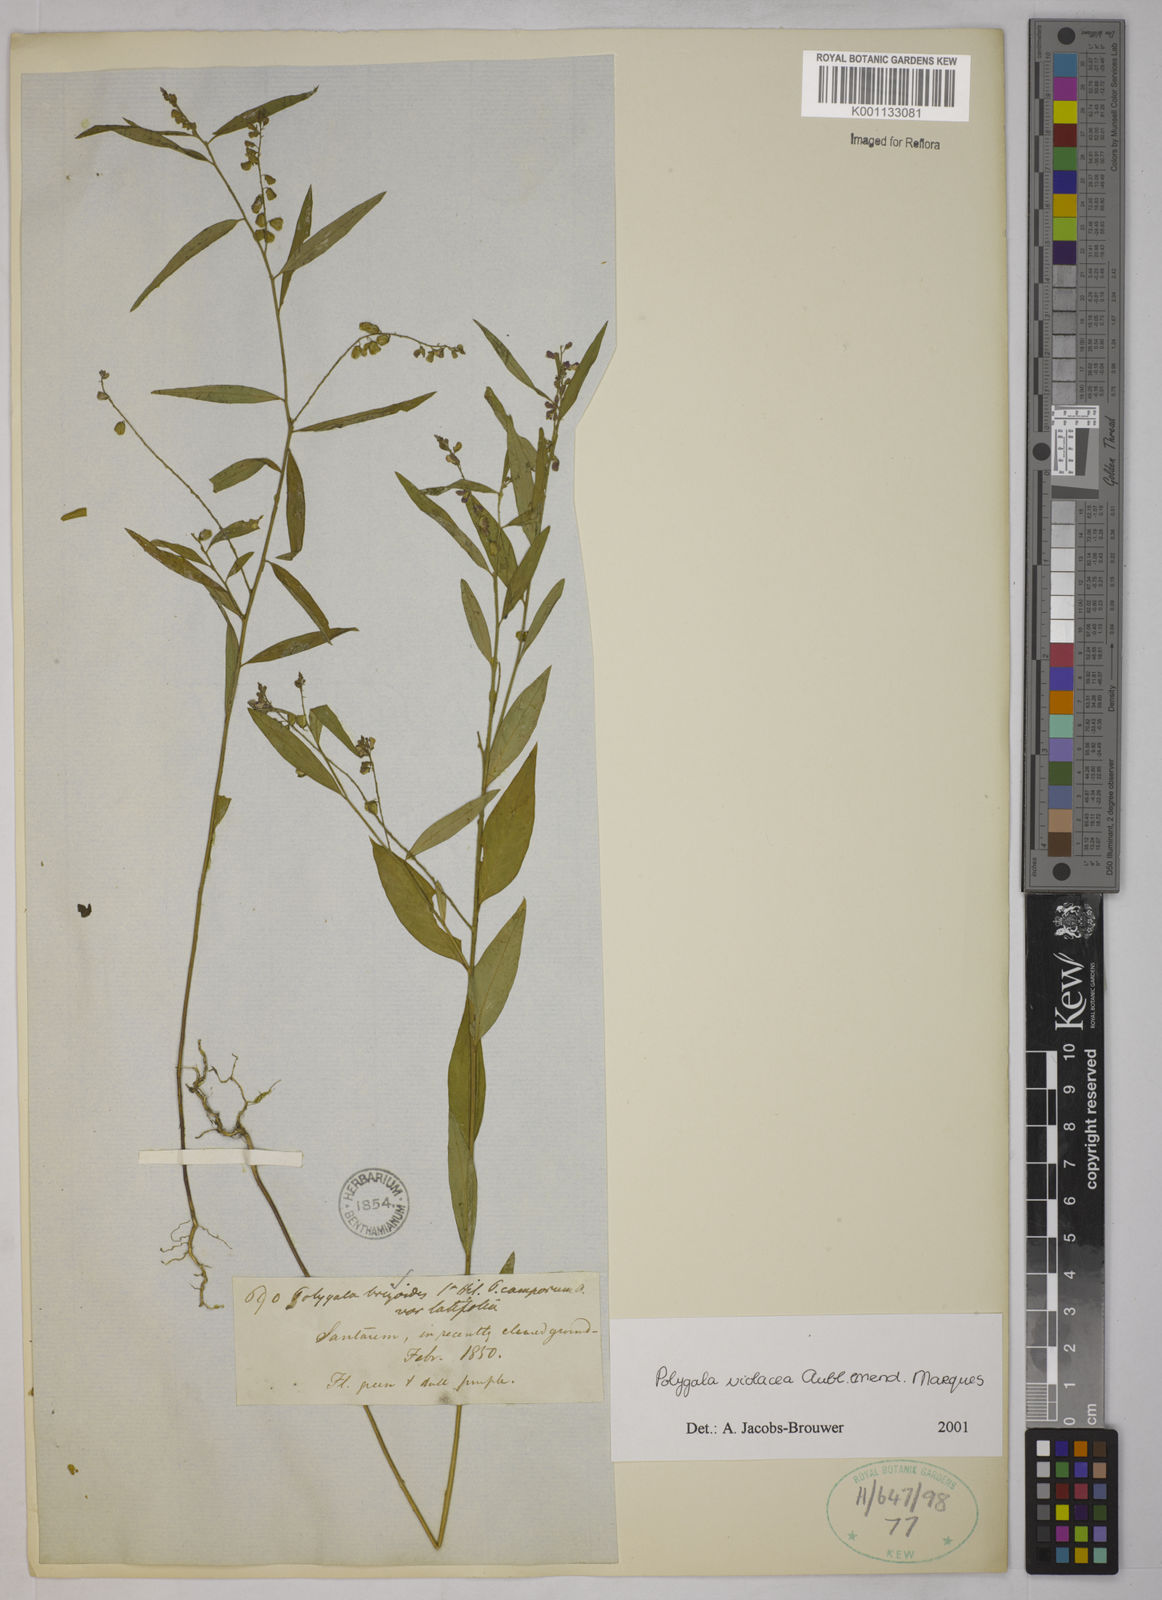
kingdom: Plantae
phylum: Tracheophyta
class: Magnoliopsida
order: Fabales
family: Polygalaceae
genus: Polygala
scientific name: Polygala
